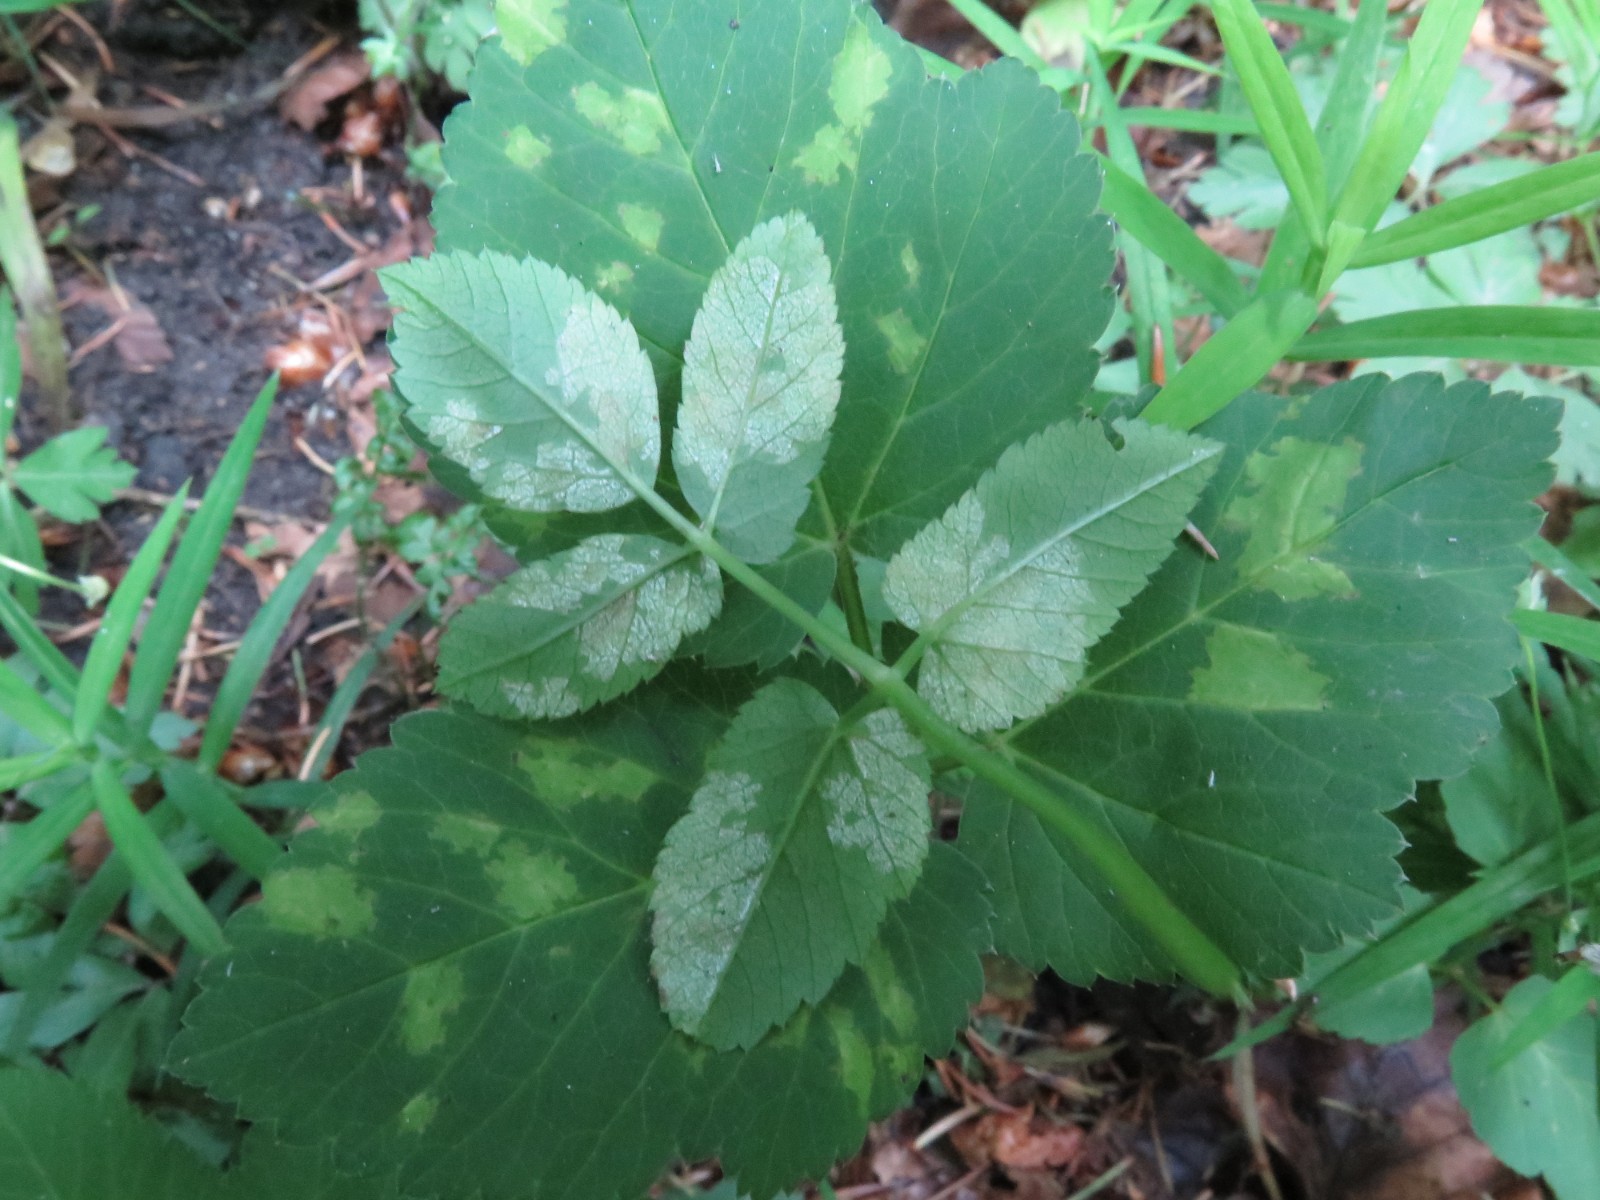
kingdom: Chromista
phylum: Oomycota
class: Peronosporea
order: Peronosporales
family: Peronosporaceae
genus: Peronospora
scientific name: Peronospora crustosa
